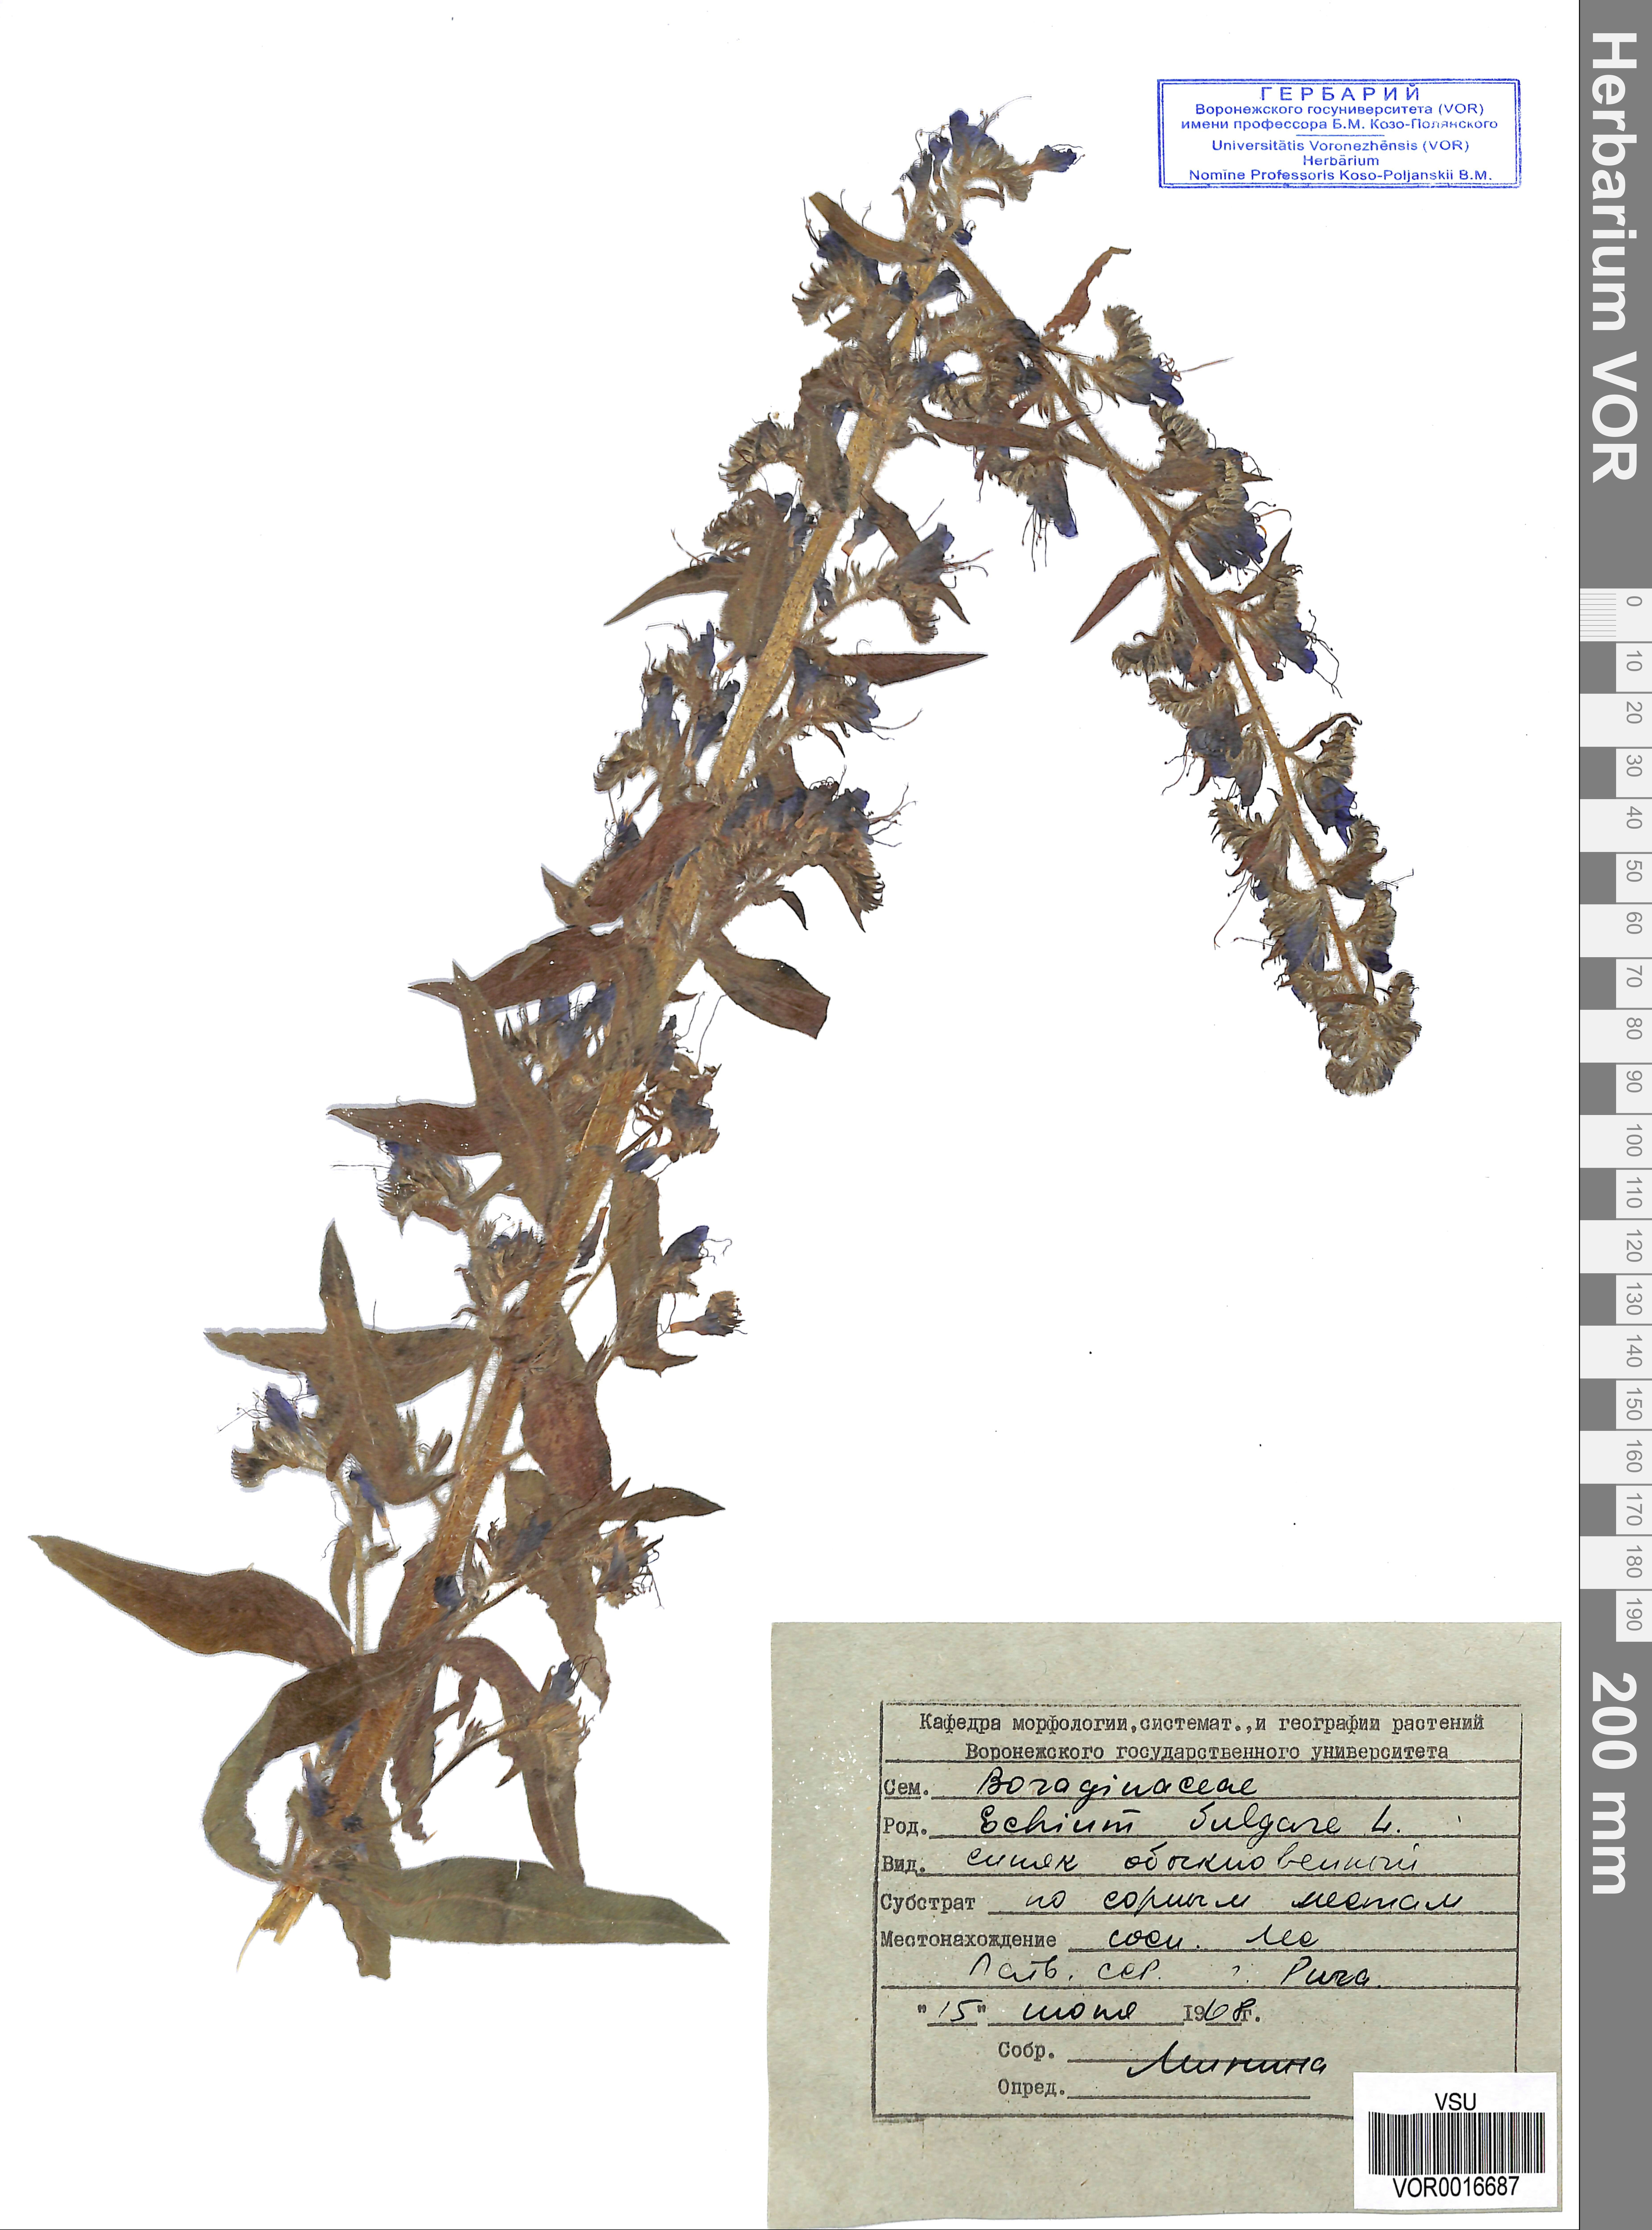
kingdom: Plantae
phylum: Tracheophyta
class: Magnoliopsida
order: Boraginales
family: Boraginaceae
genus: Echium
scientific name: Echium vulgare
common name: Common viper's bugloss
